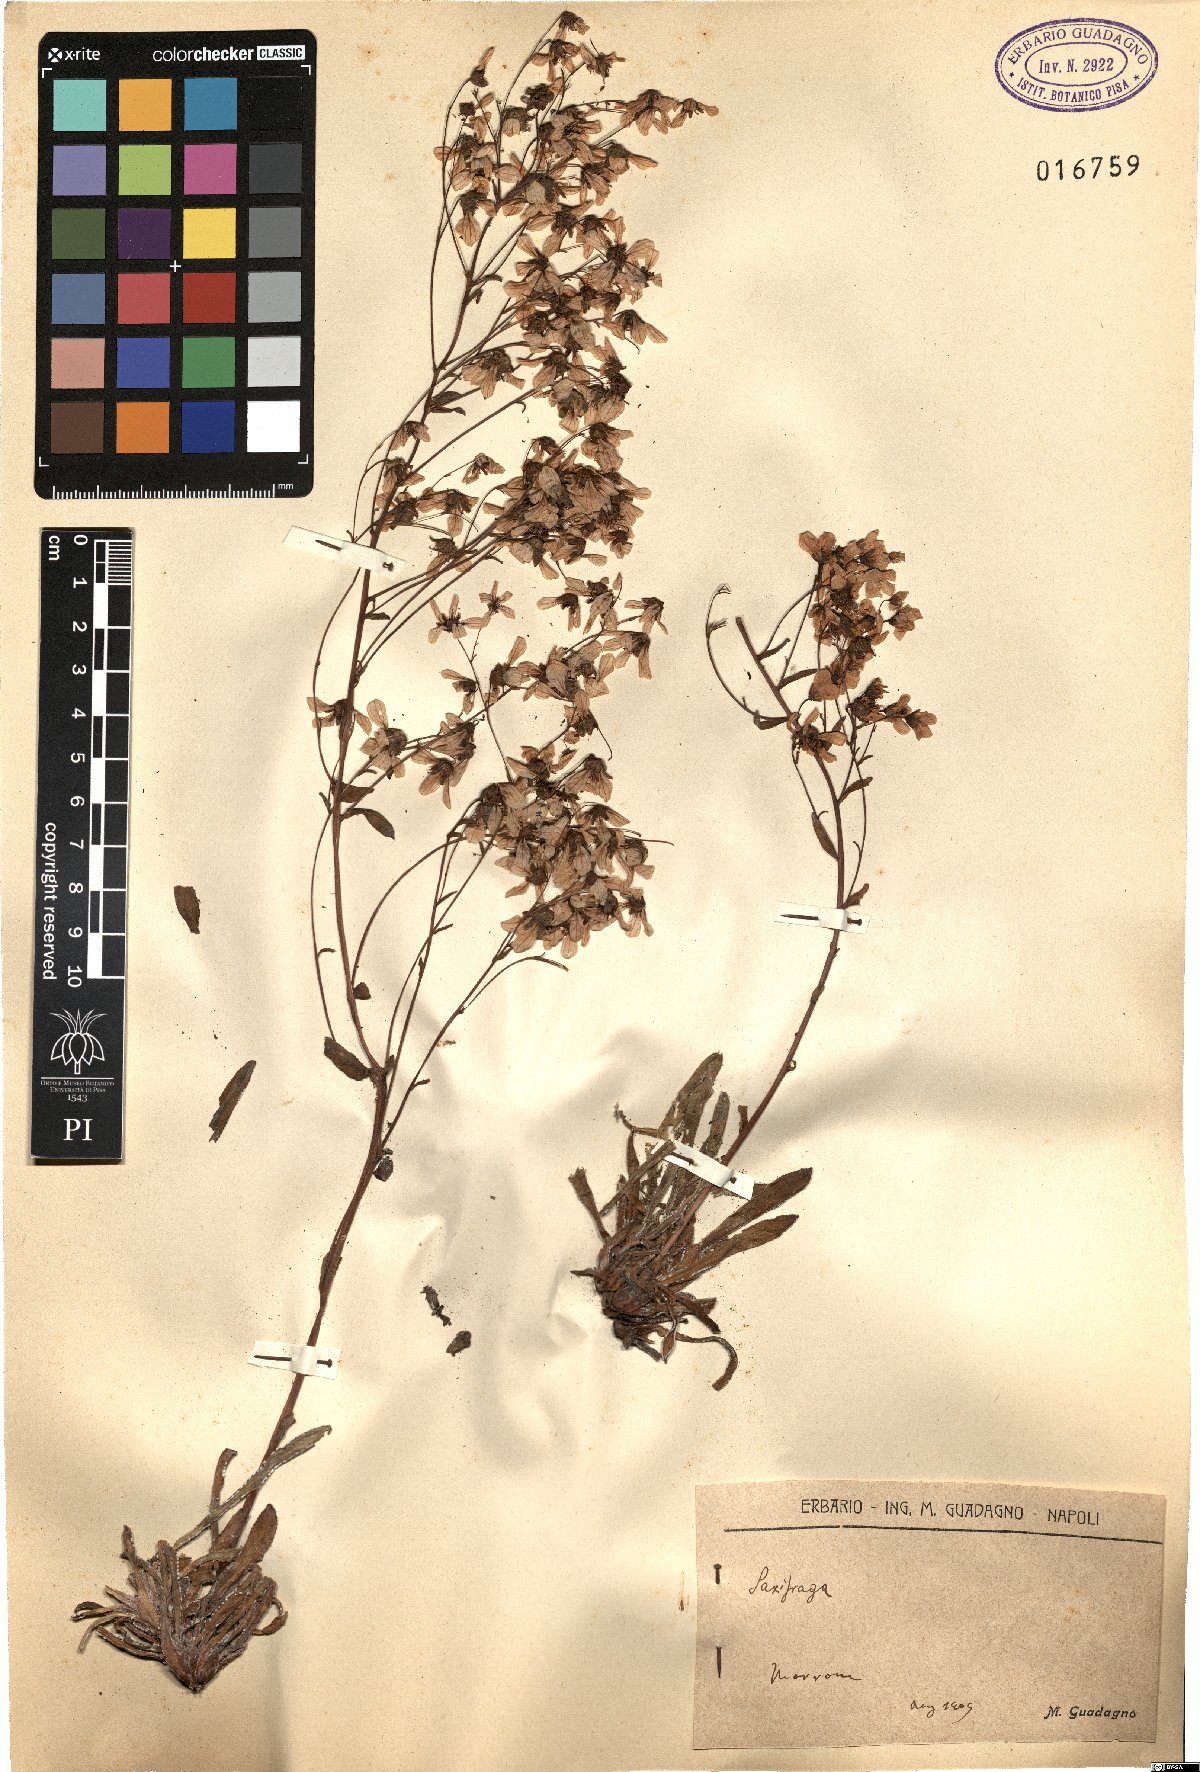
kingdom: Plantae
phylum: Tracheophyta
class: Magnoliopsida
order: Saxifragales
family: Saxifragaceae
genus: Saxifraga
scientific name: Saxifraga
